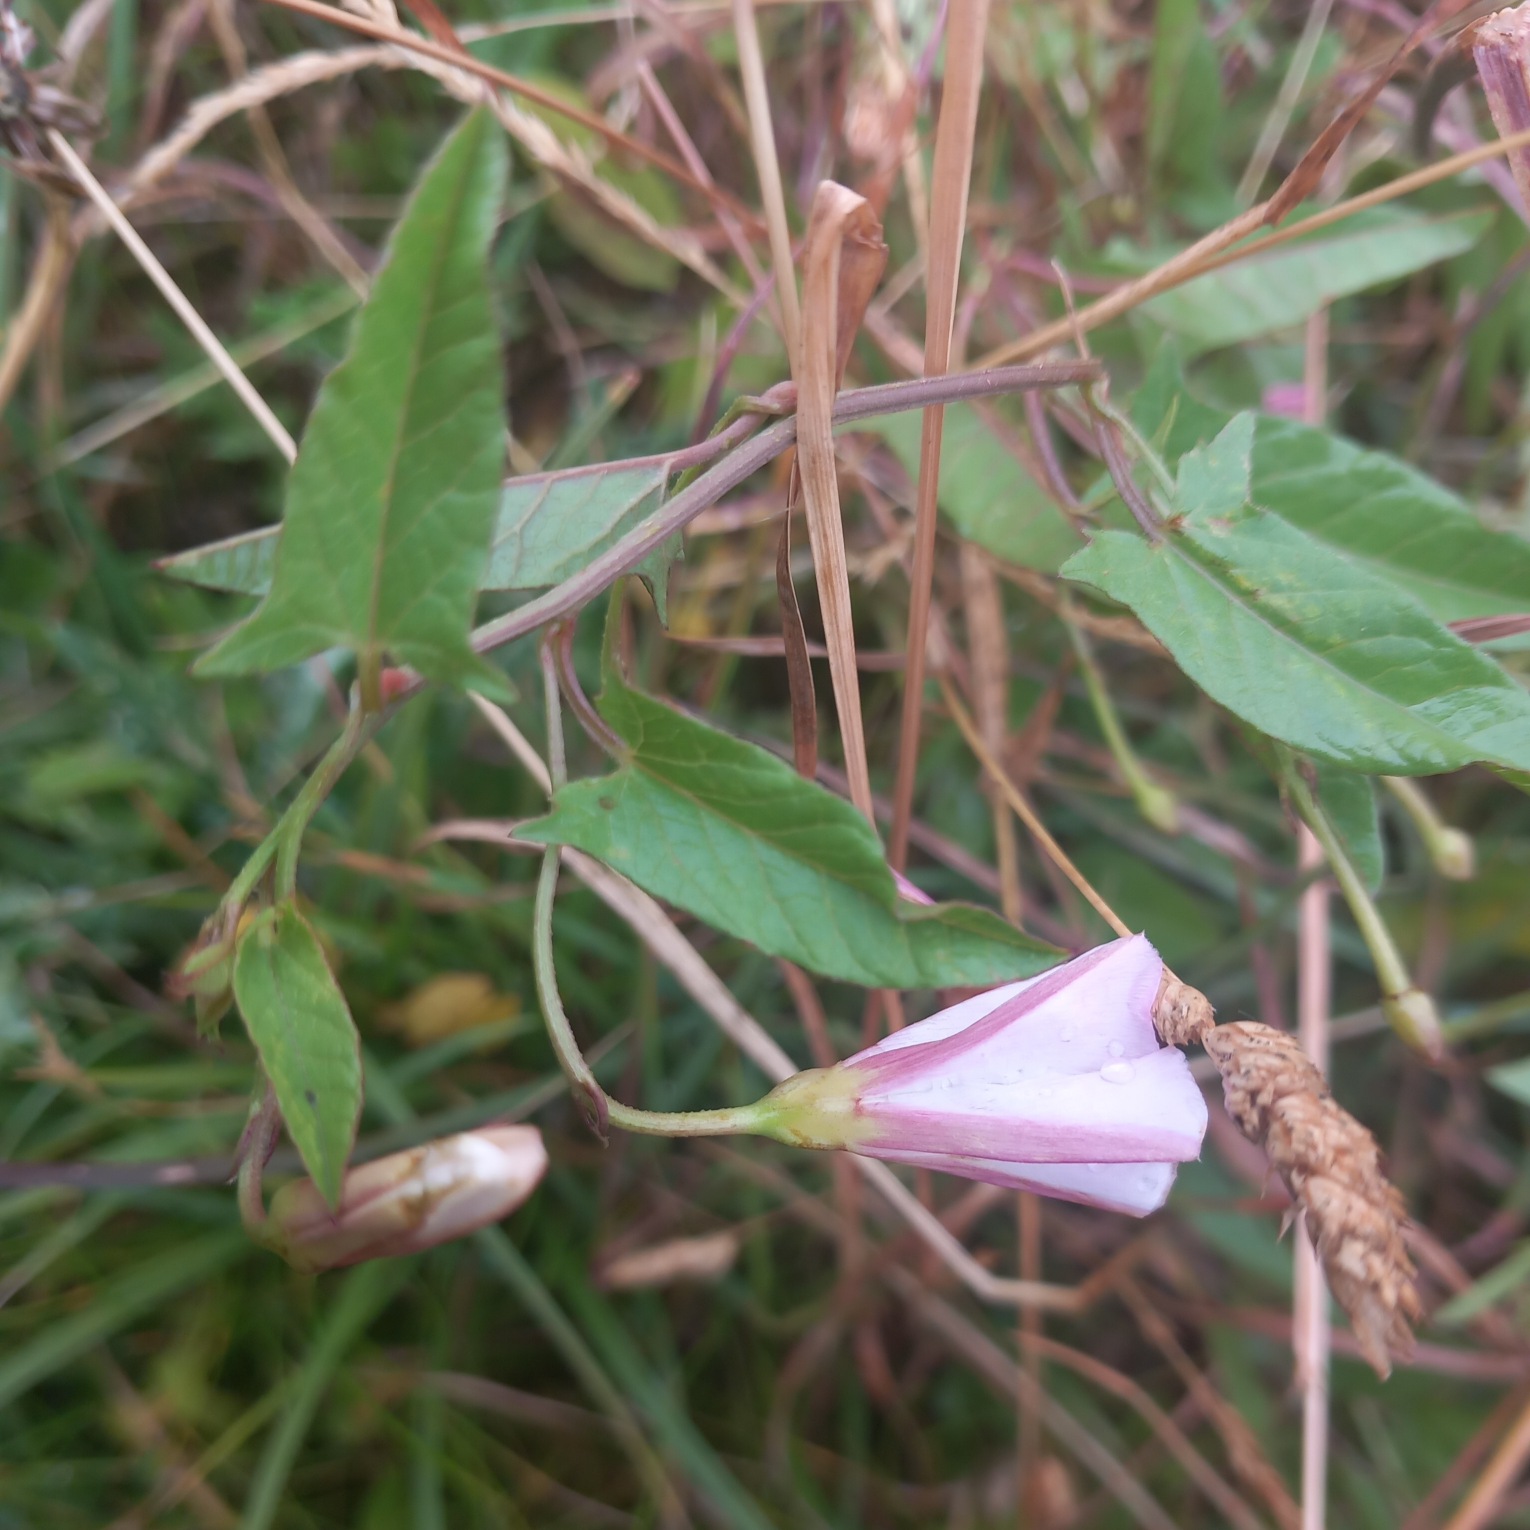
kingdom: Plantae
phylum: Tracheophyta
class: Magnoliopsida
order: Solanales
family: Convolvulaceae
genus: Convolvulus
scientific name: Convolvulus arvensis
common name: Ager-snerle
